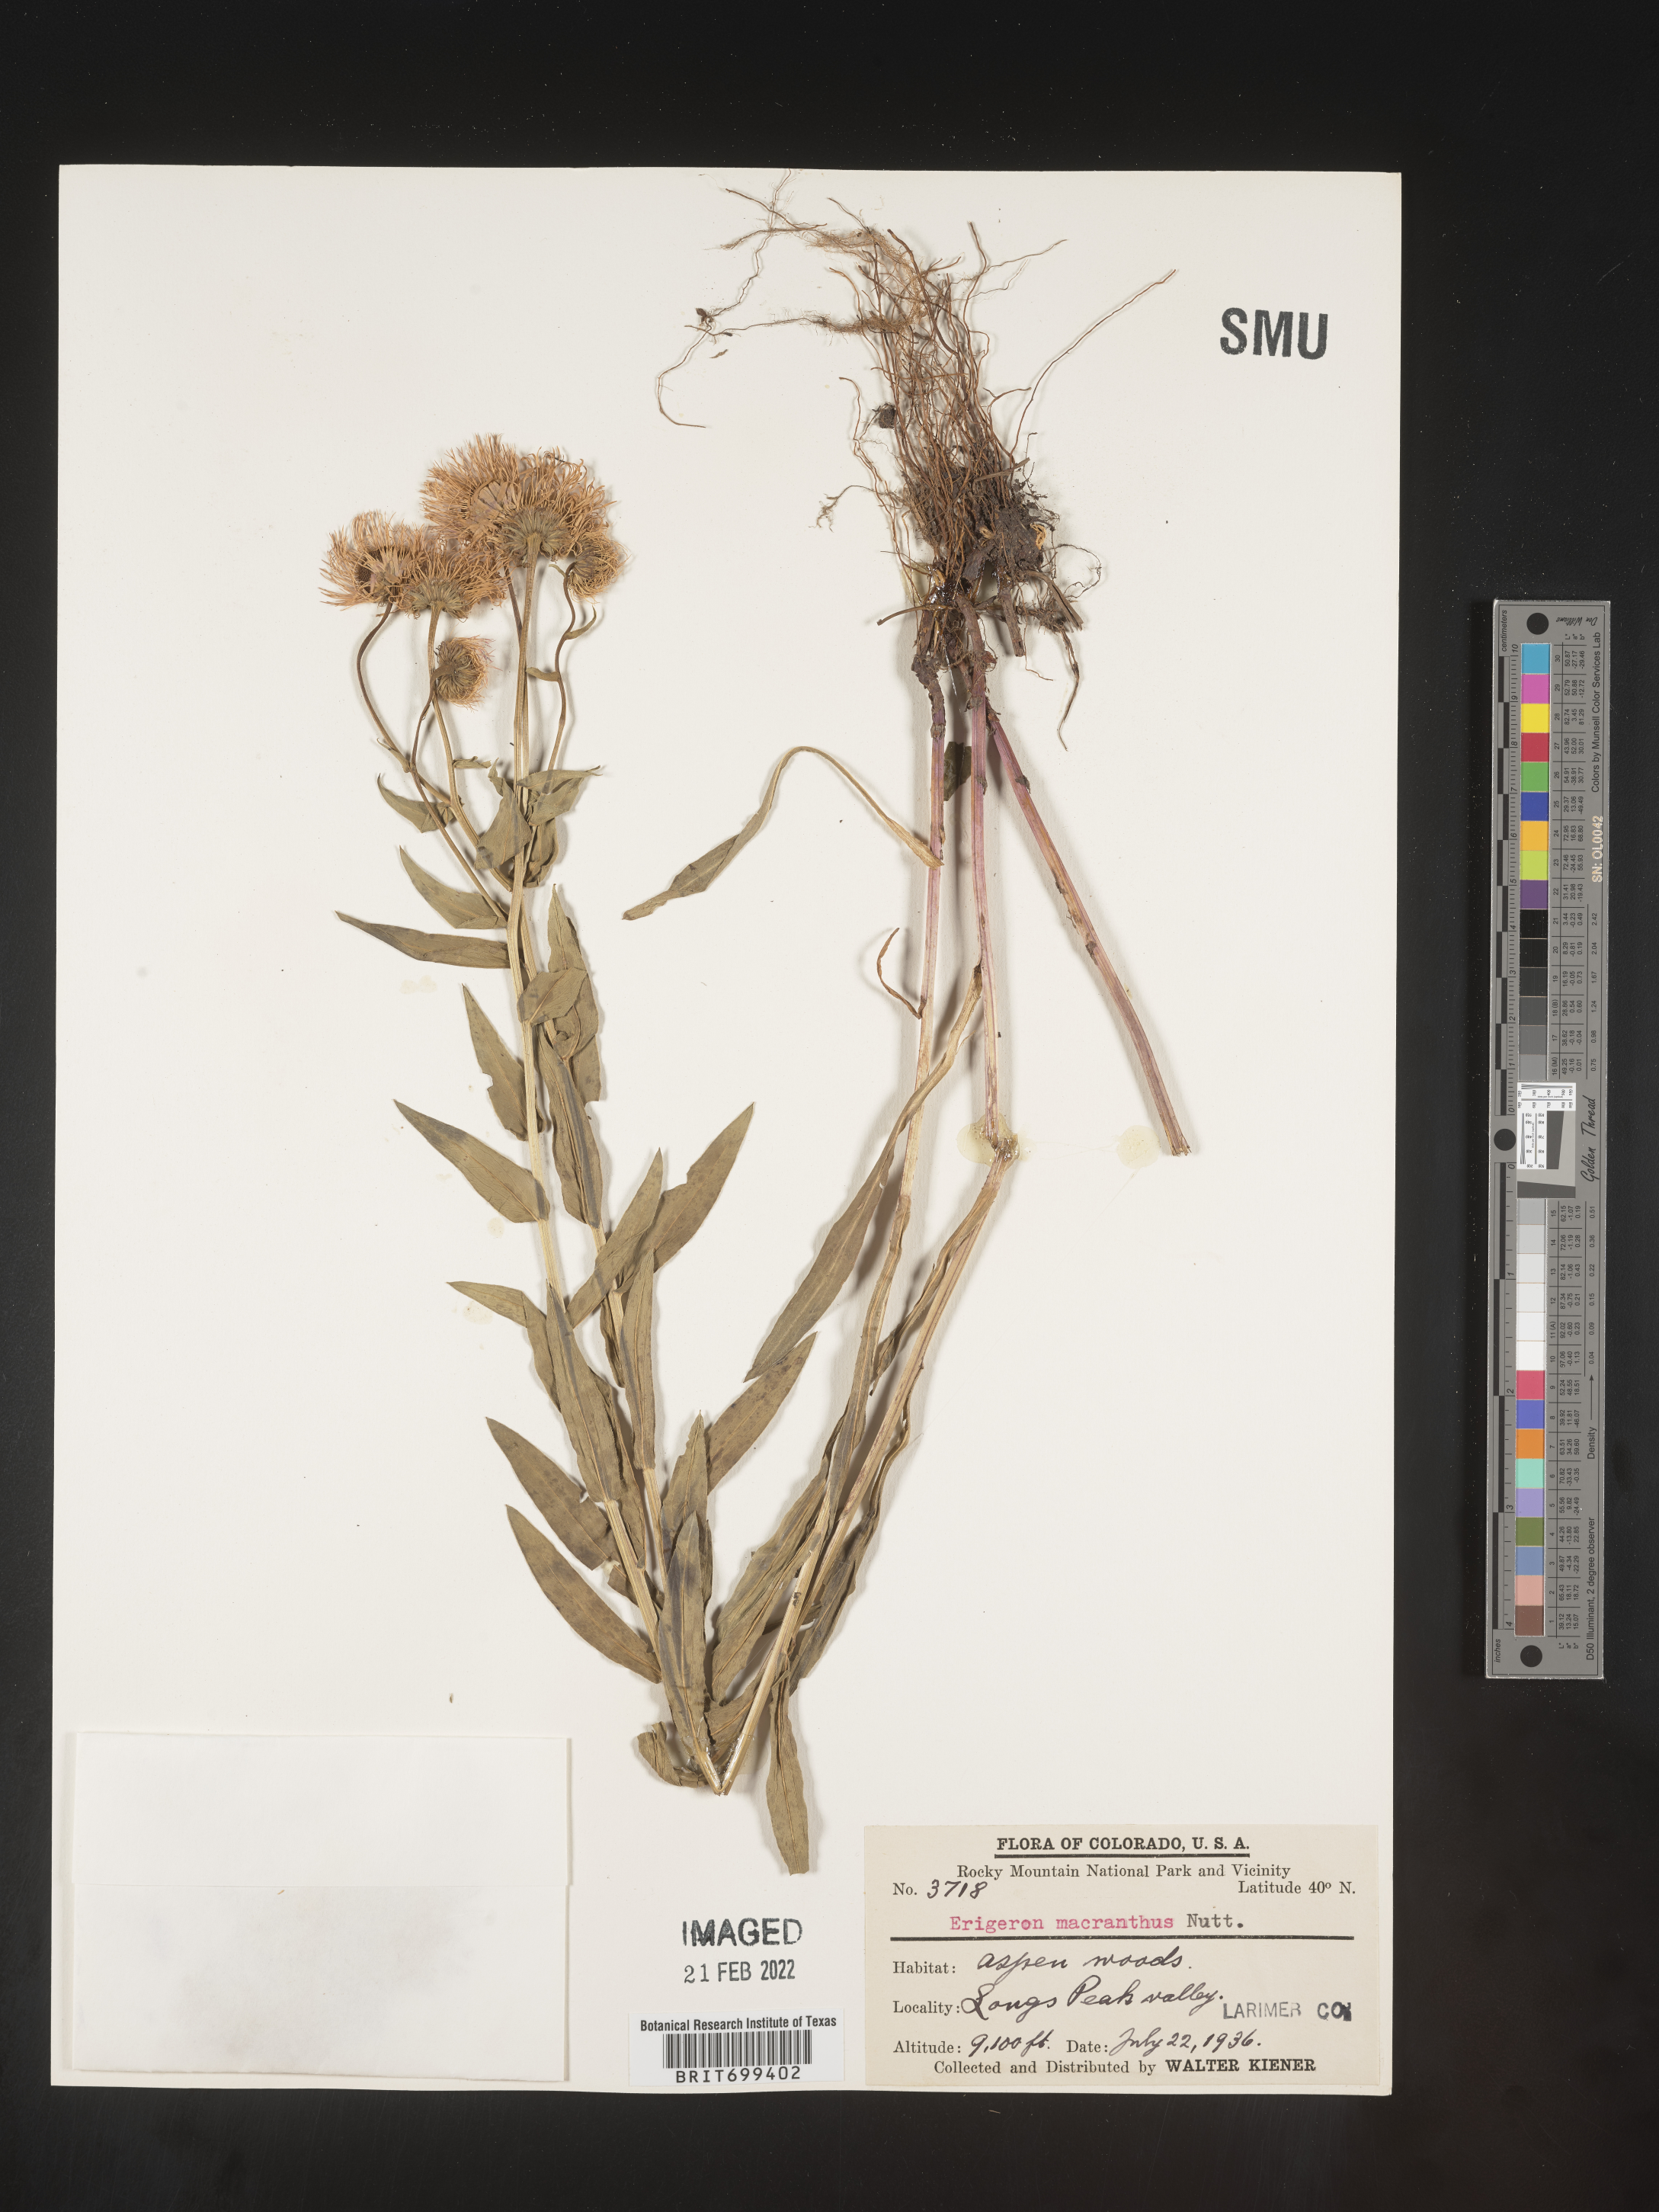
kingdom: Plantae
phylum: Tracheophyta
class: Magnoliopsida
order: Asterales
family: Asteraceae
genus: Erigeron
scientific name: Erigeron speciosus
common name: Aspen fleabane
